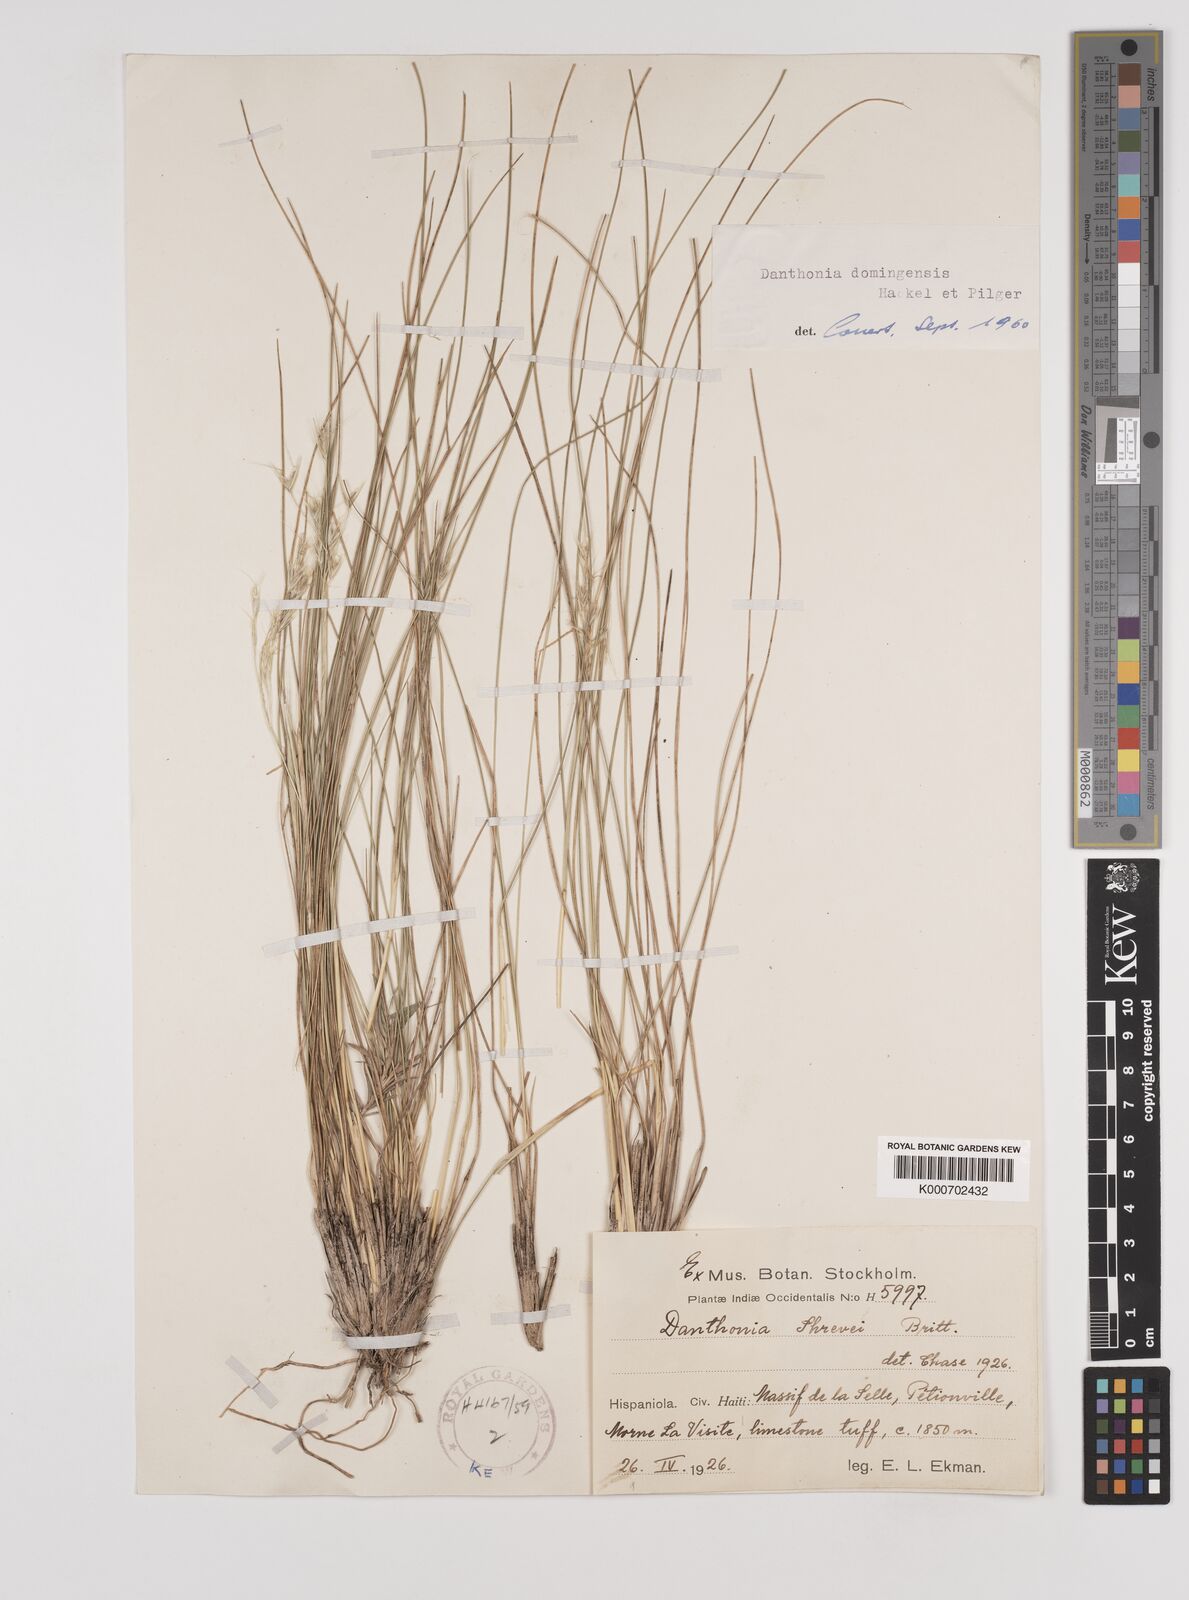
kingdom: Plantae
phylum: Tracheophyta
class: Liliopsida
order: Poales
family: Poaceae
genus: Danthonia
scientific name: Danthonia domingensis
